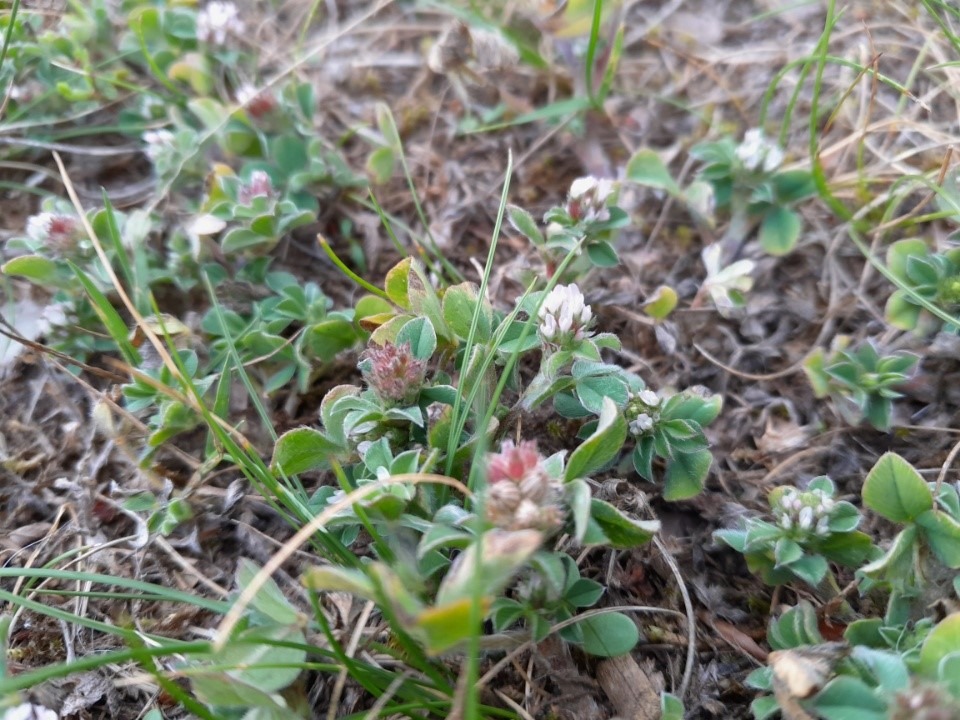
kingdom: Plantae
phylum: Tracheophyta
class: Magnoliopsida
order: Fabales
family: Fabaceae
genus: Trifolium
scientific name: Trifolium striatum
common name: Stribet kløver
